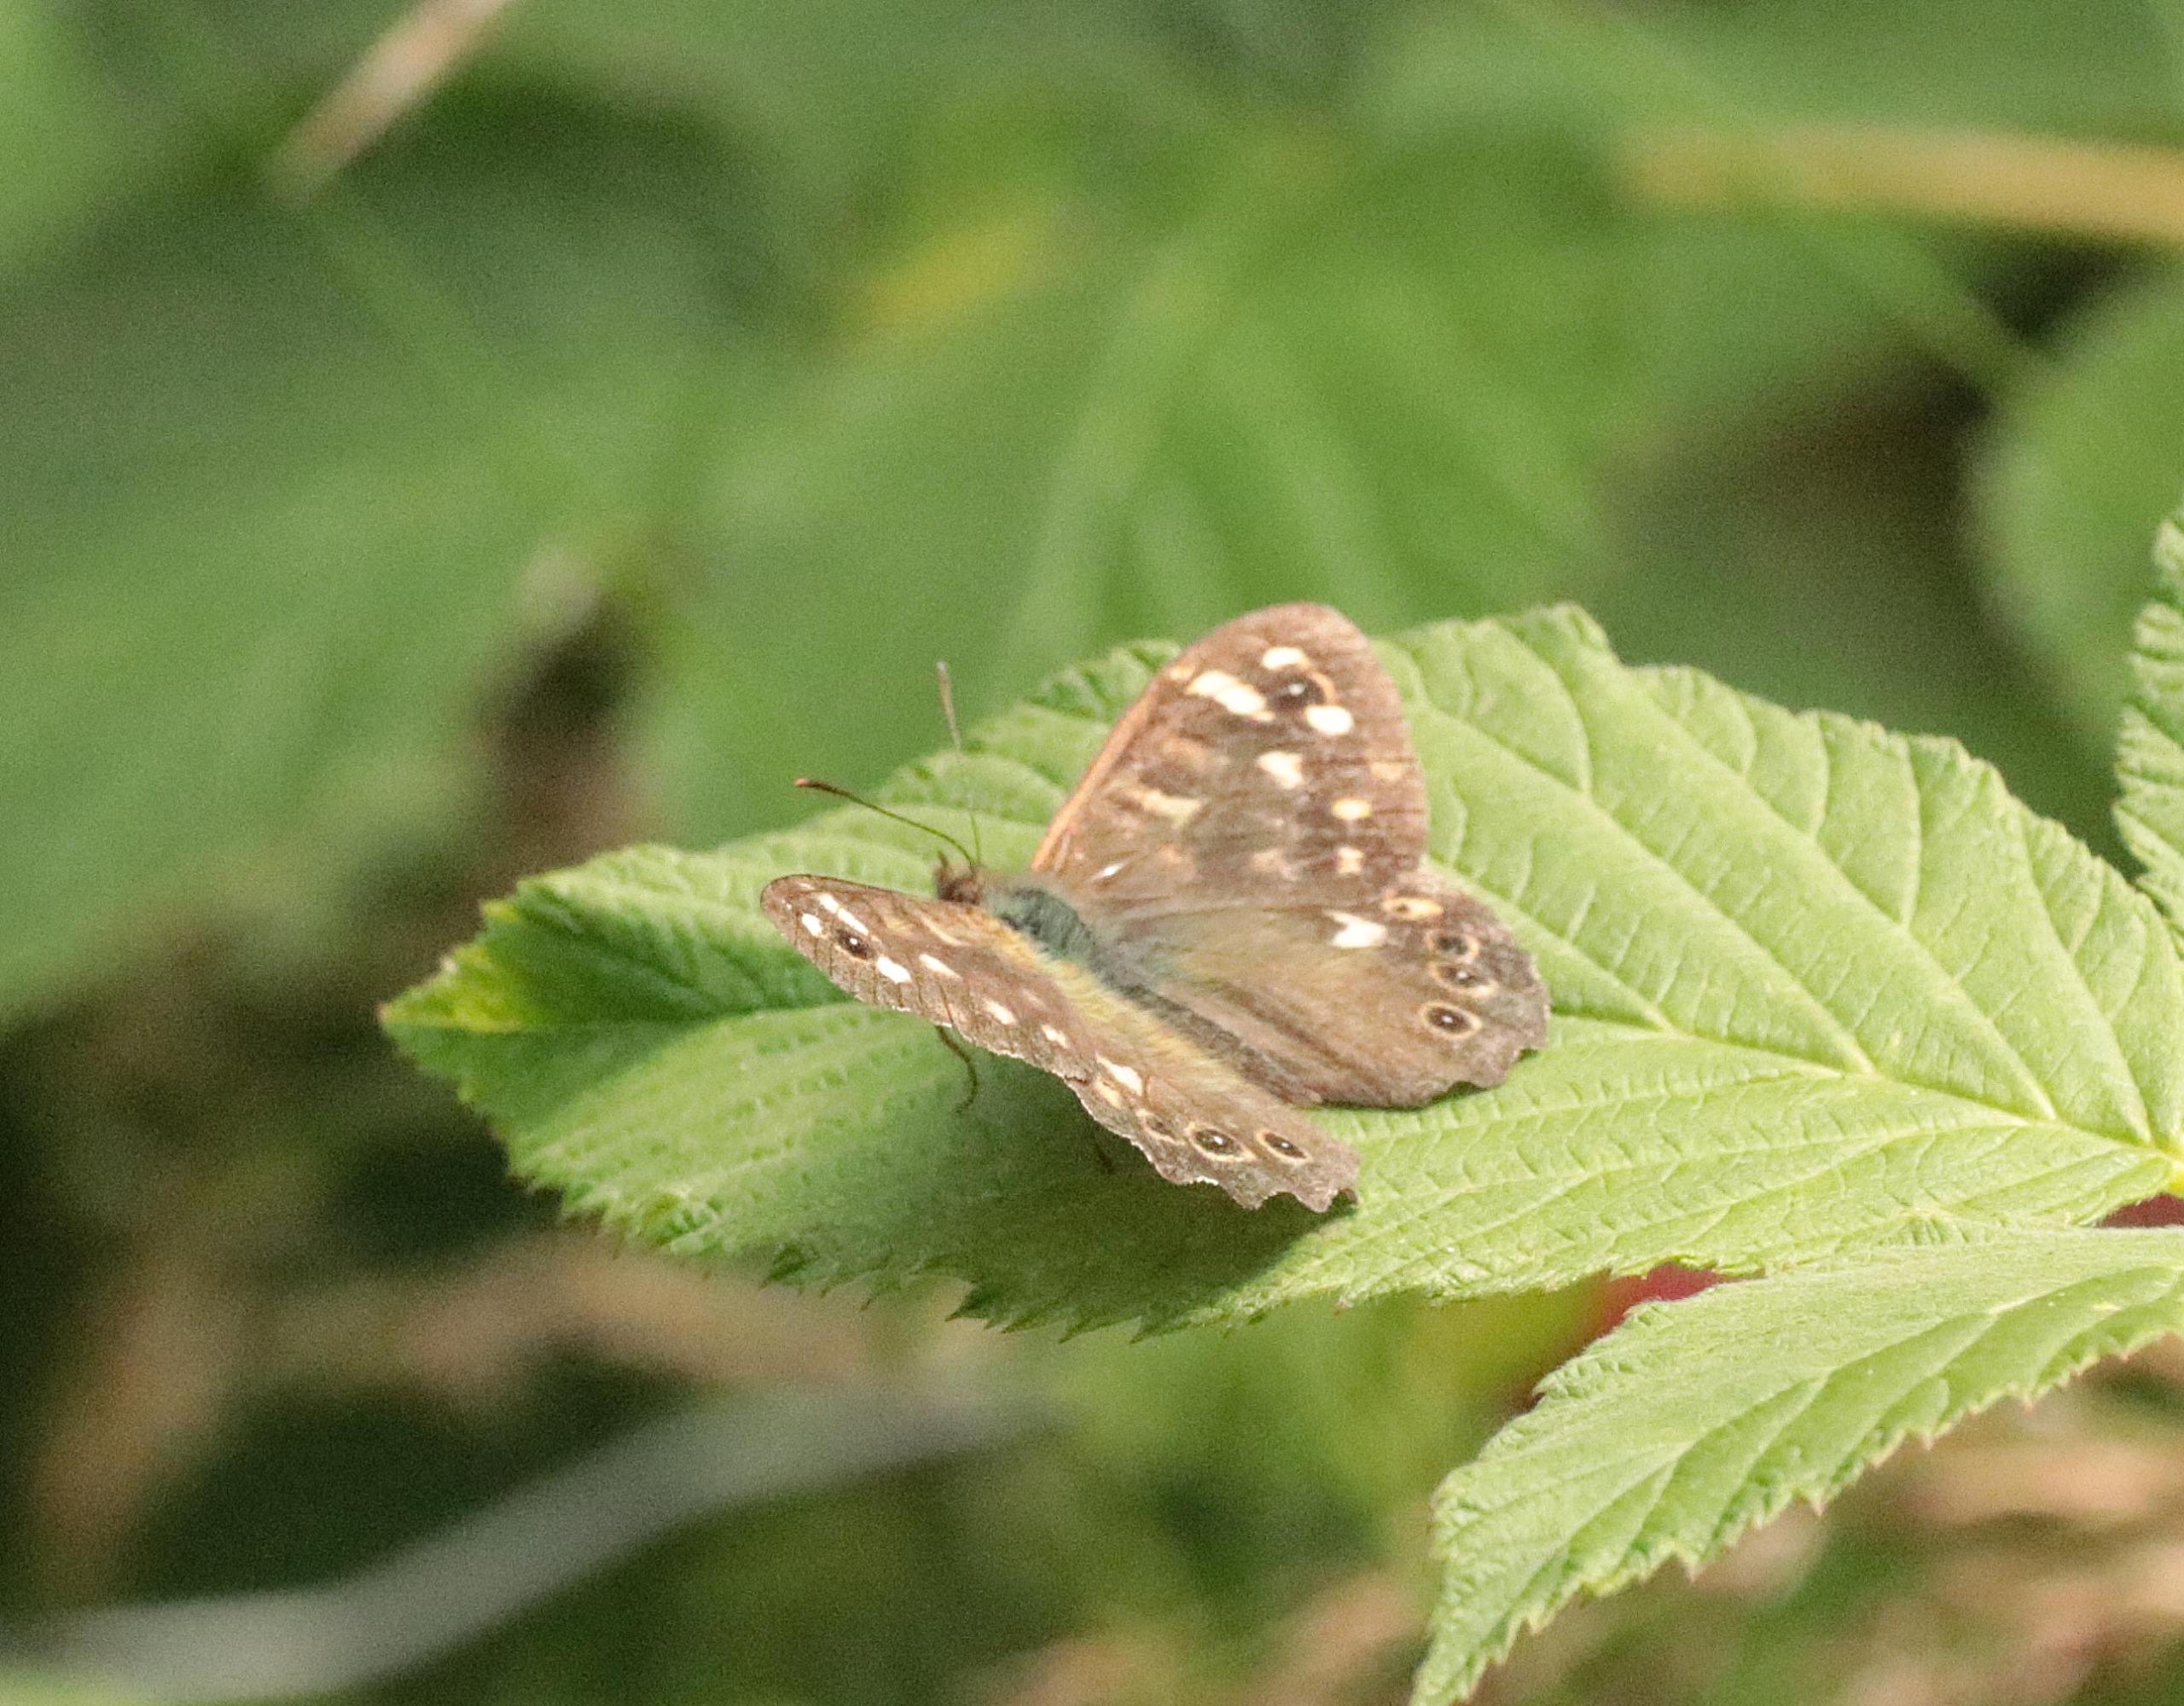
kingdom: Animalia
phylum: Arthropoda
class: Insecta
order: Lepidoptera
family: Nymphalidae
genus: Pararge
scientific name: Pararge aegeria
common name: Skovrandøje
